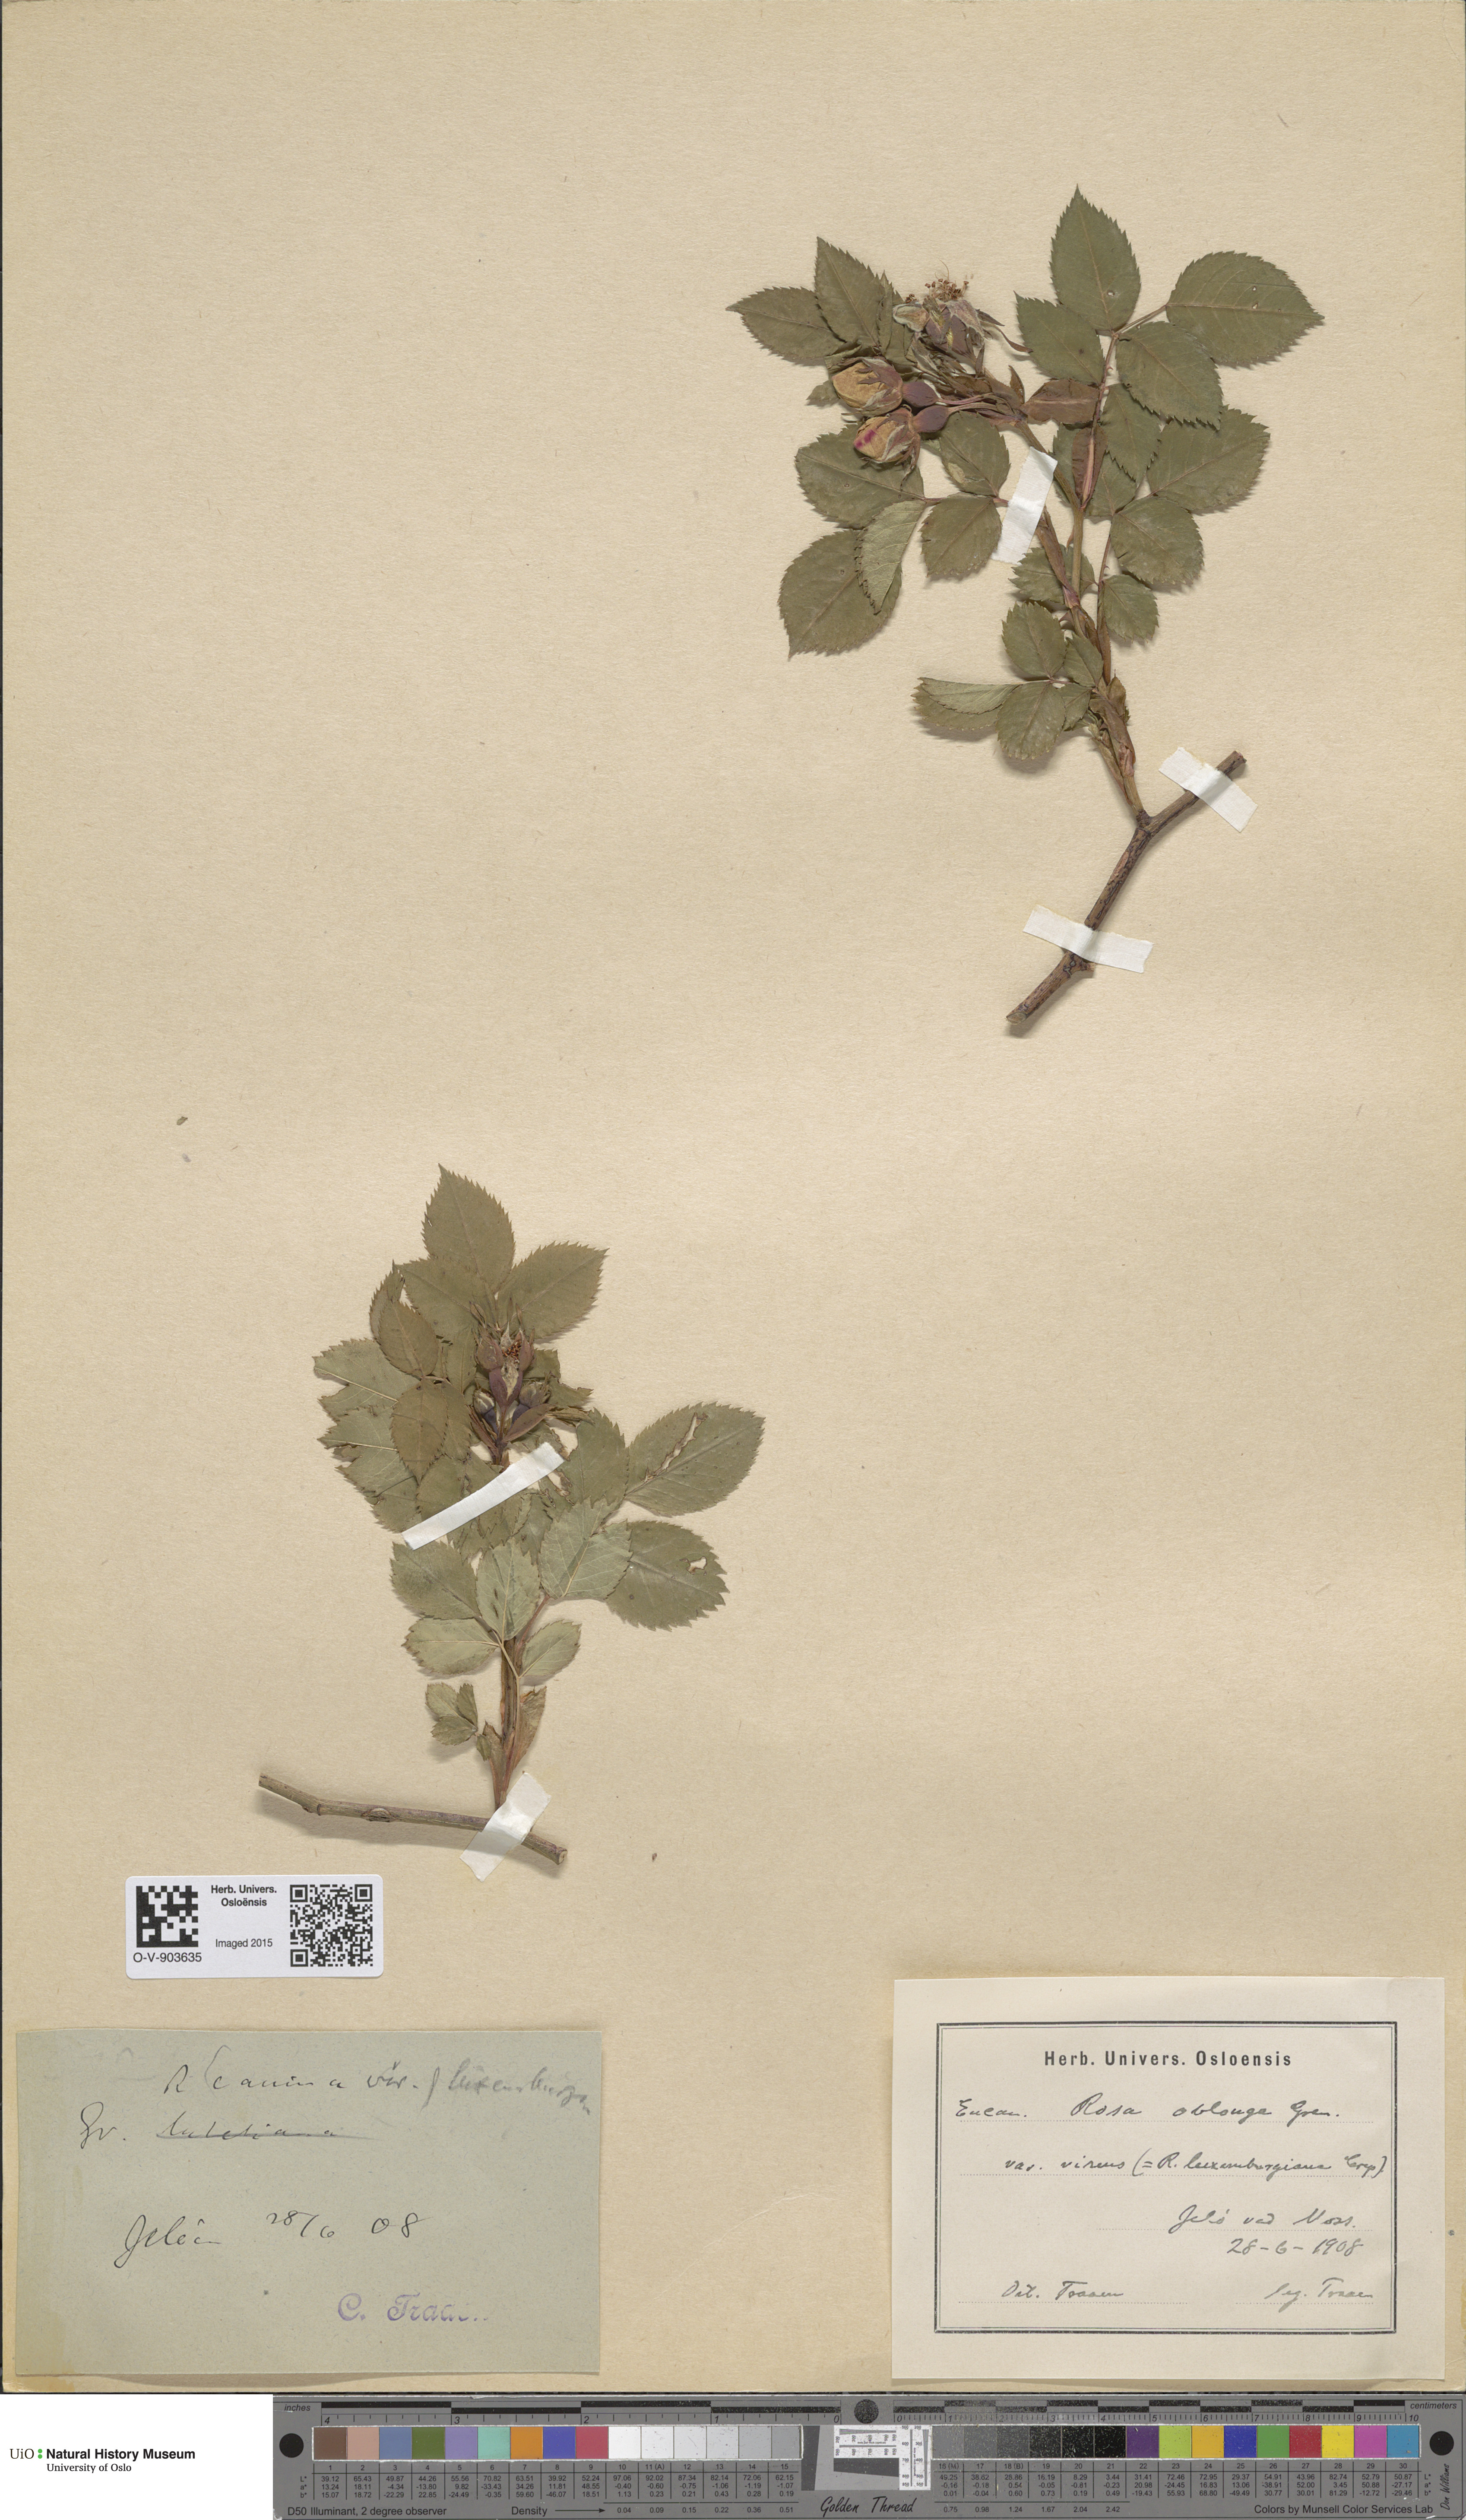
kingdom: Plantae
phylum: Tracheophyta
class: Magnoliopsida
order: Rosales
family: Rosaceae
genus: Rosa
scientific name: Rosa subcanina
